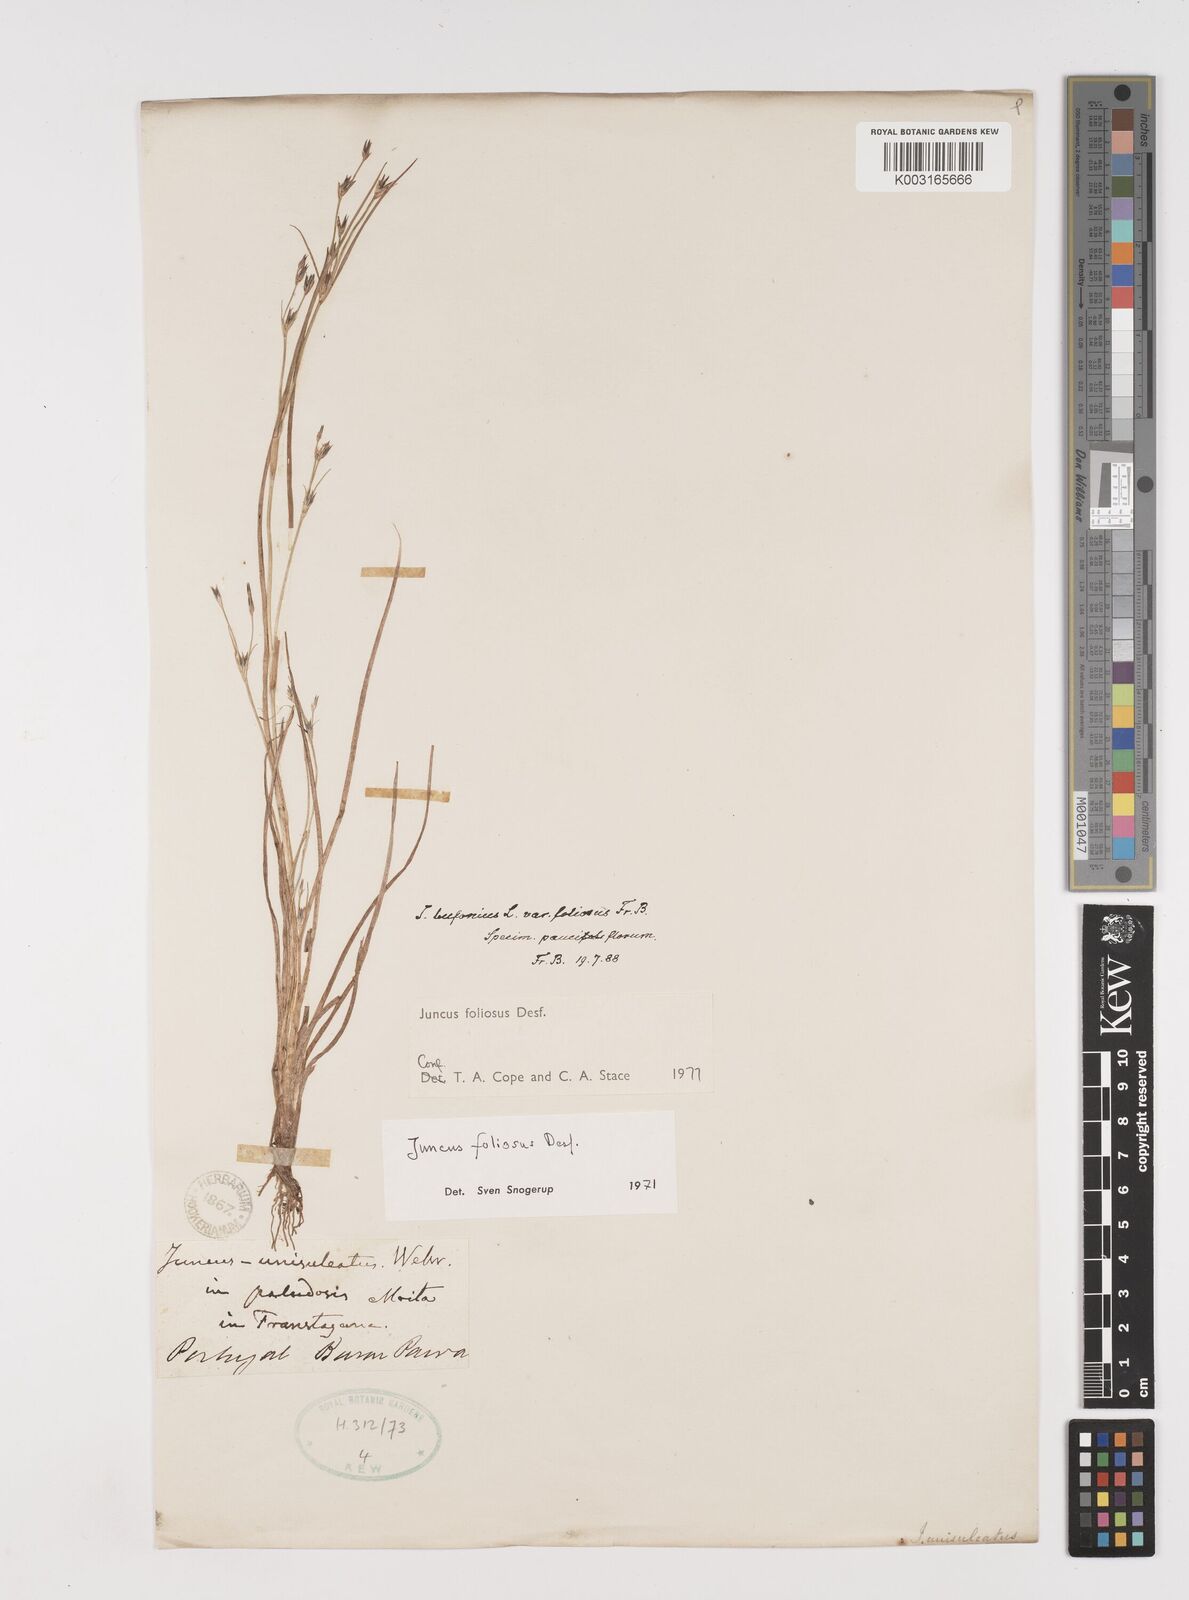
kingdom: Plantae
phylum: Tracheophyta
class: Liliopsida
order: Poales
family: Juncaceae
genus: Juncus
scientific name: Juncus foliosus
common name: Leafy rush
